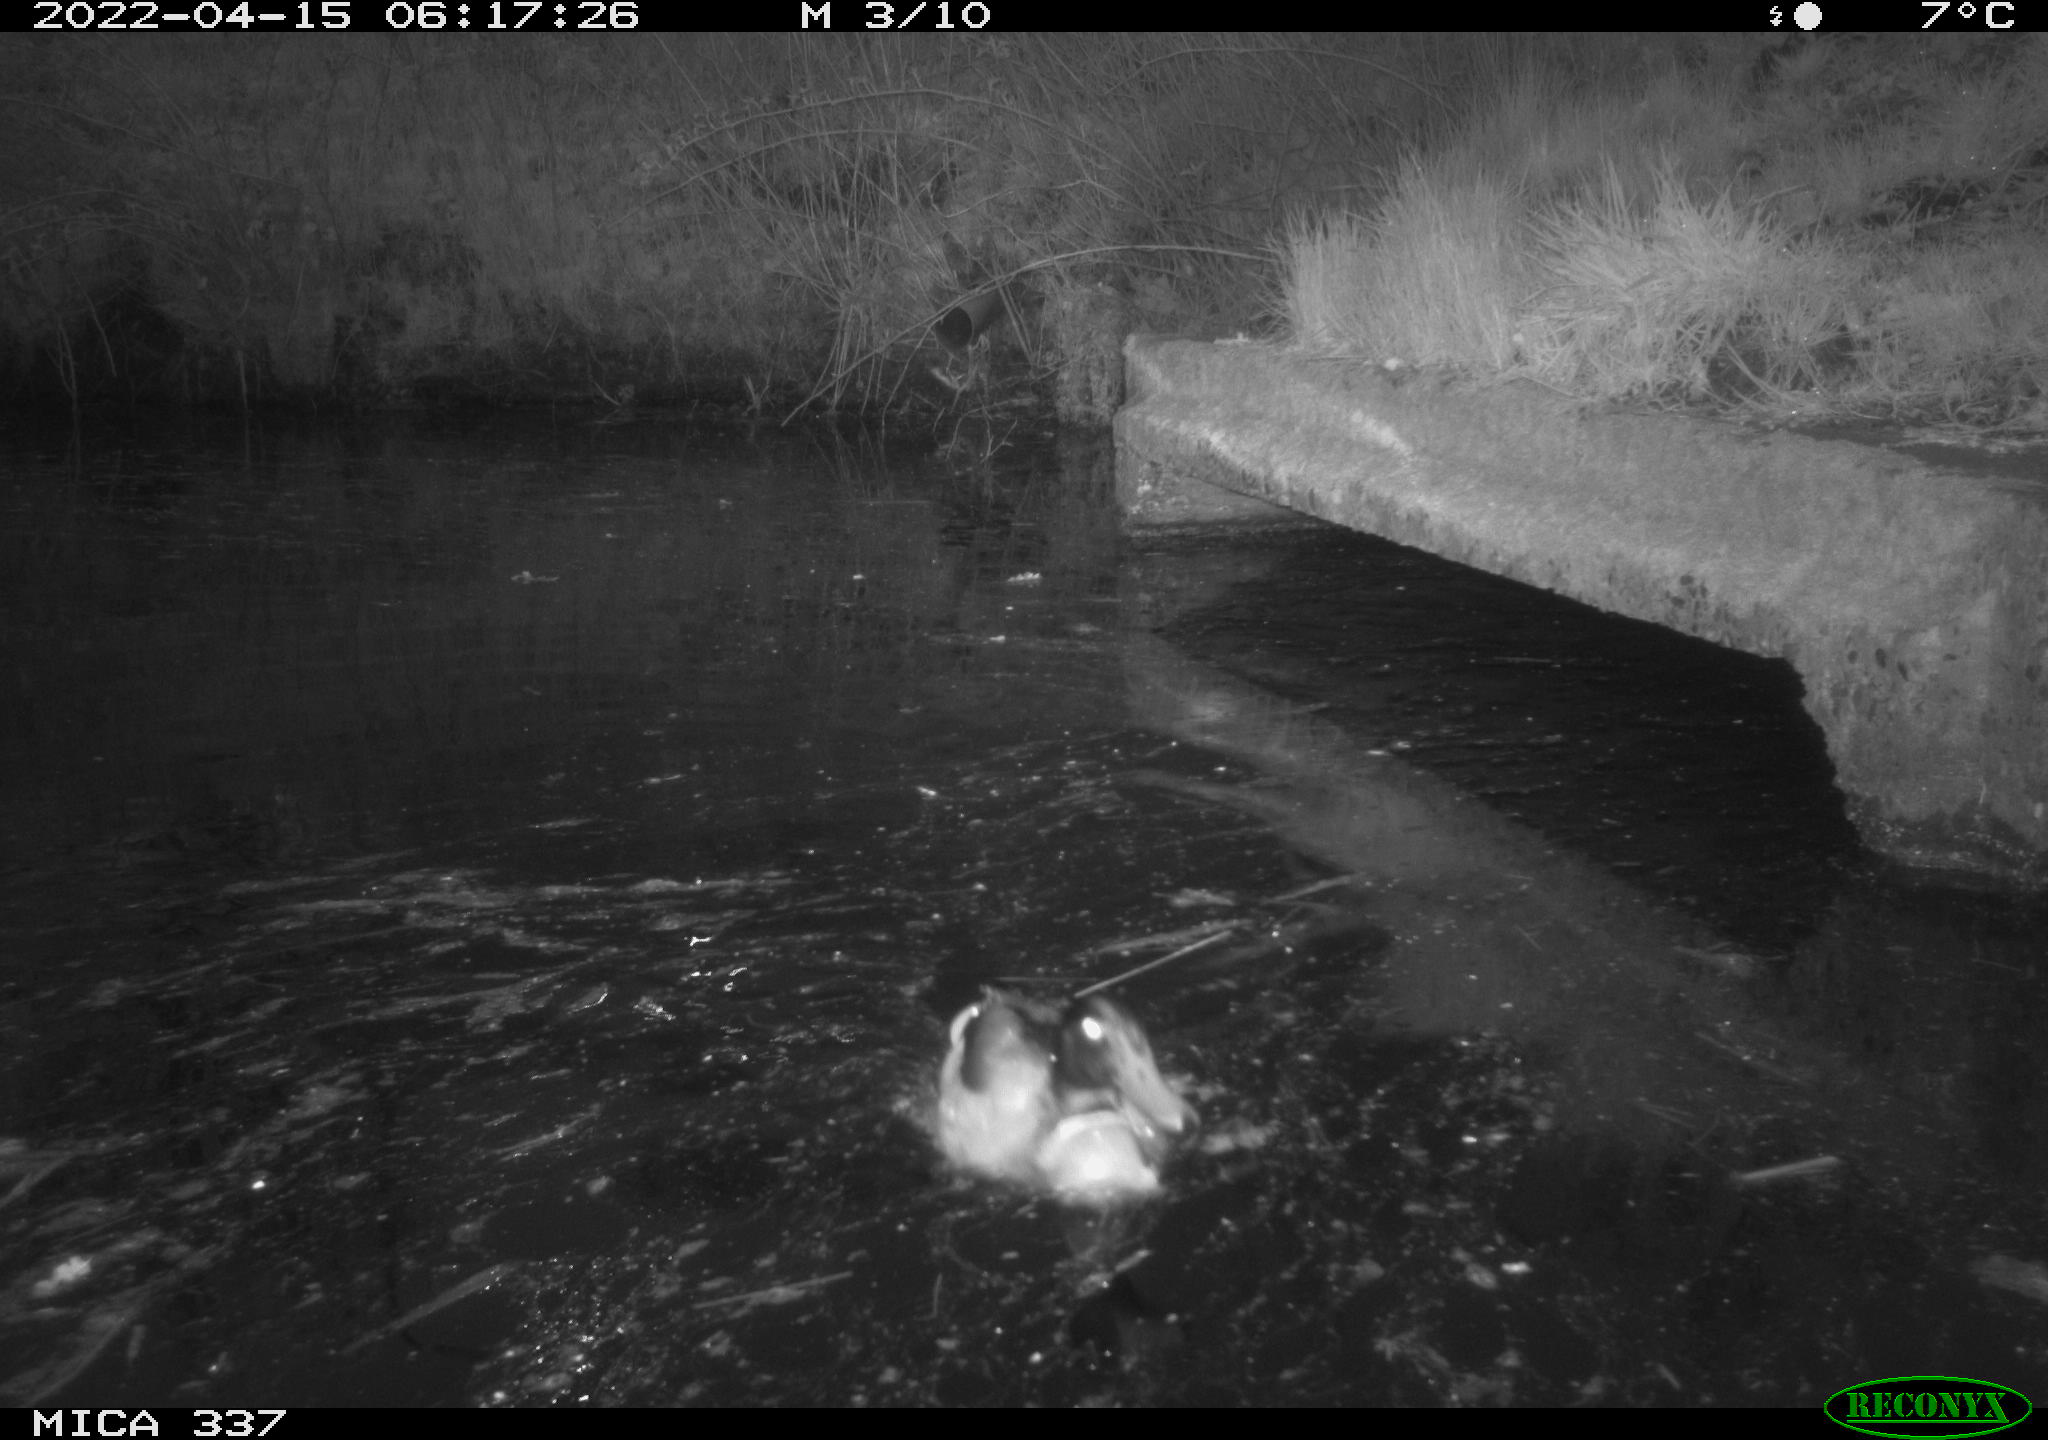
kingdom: Animalia
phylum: Chordata
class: Aves
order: Anseriformes
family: Anatidae
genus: Anas
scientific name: Anas platyrhynchos
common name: Mallard
